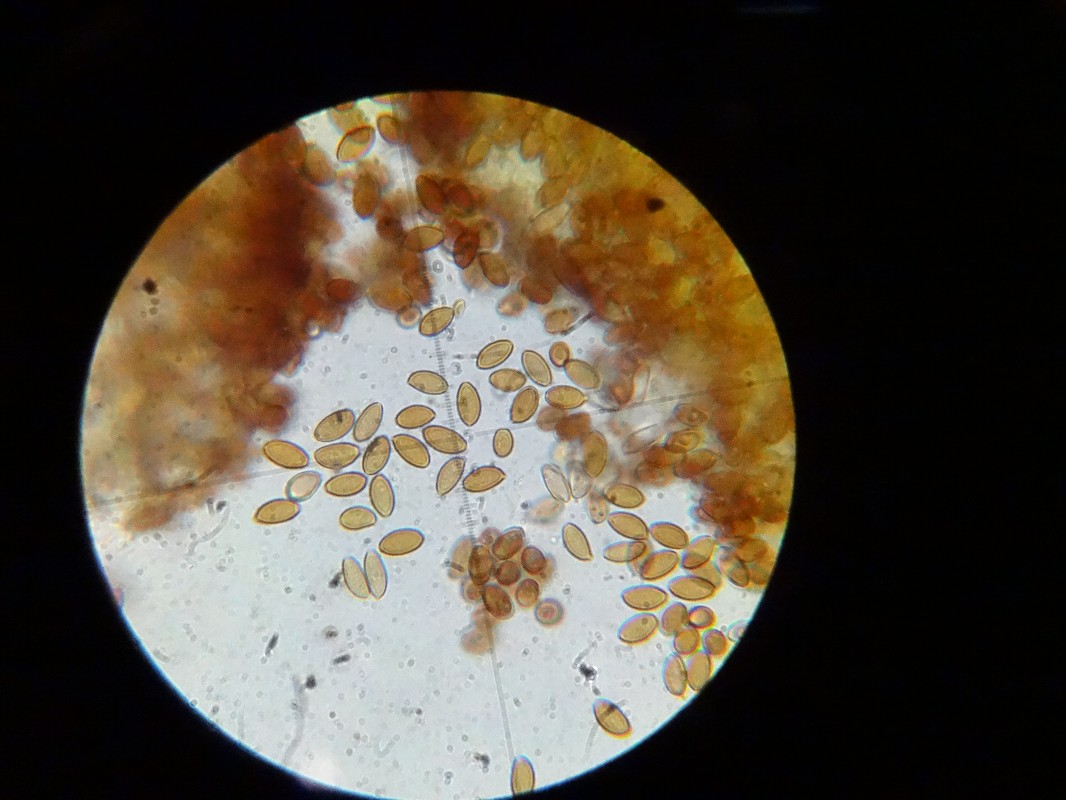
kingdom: Fungi
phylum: Basidiomycota
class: Agaricomycetes
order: Agaricales
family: Hymenogastraceae
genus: Psilocybe
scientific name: Psilocybe fimetaria
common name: prægtig nøgenhat
